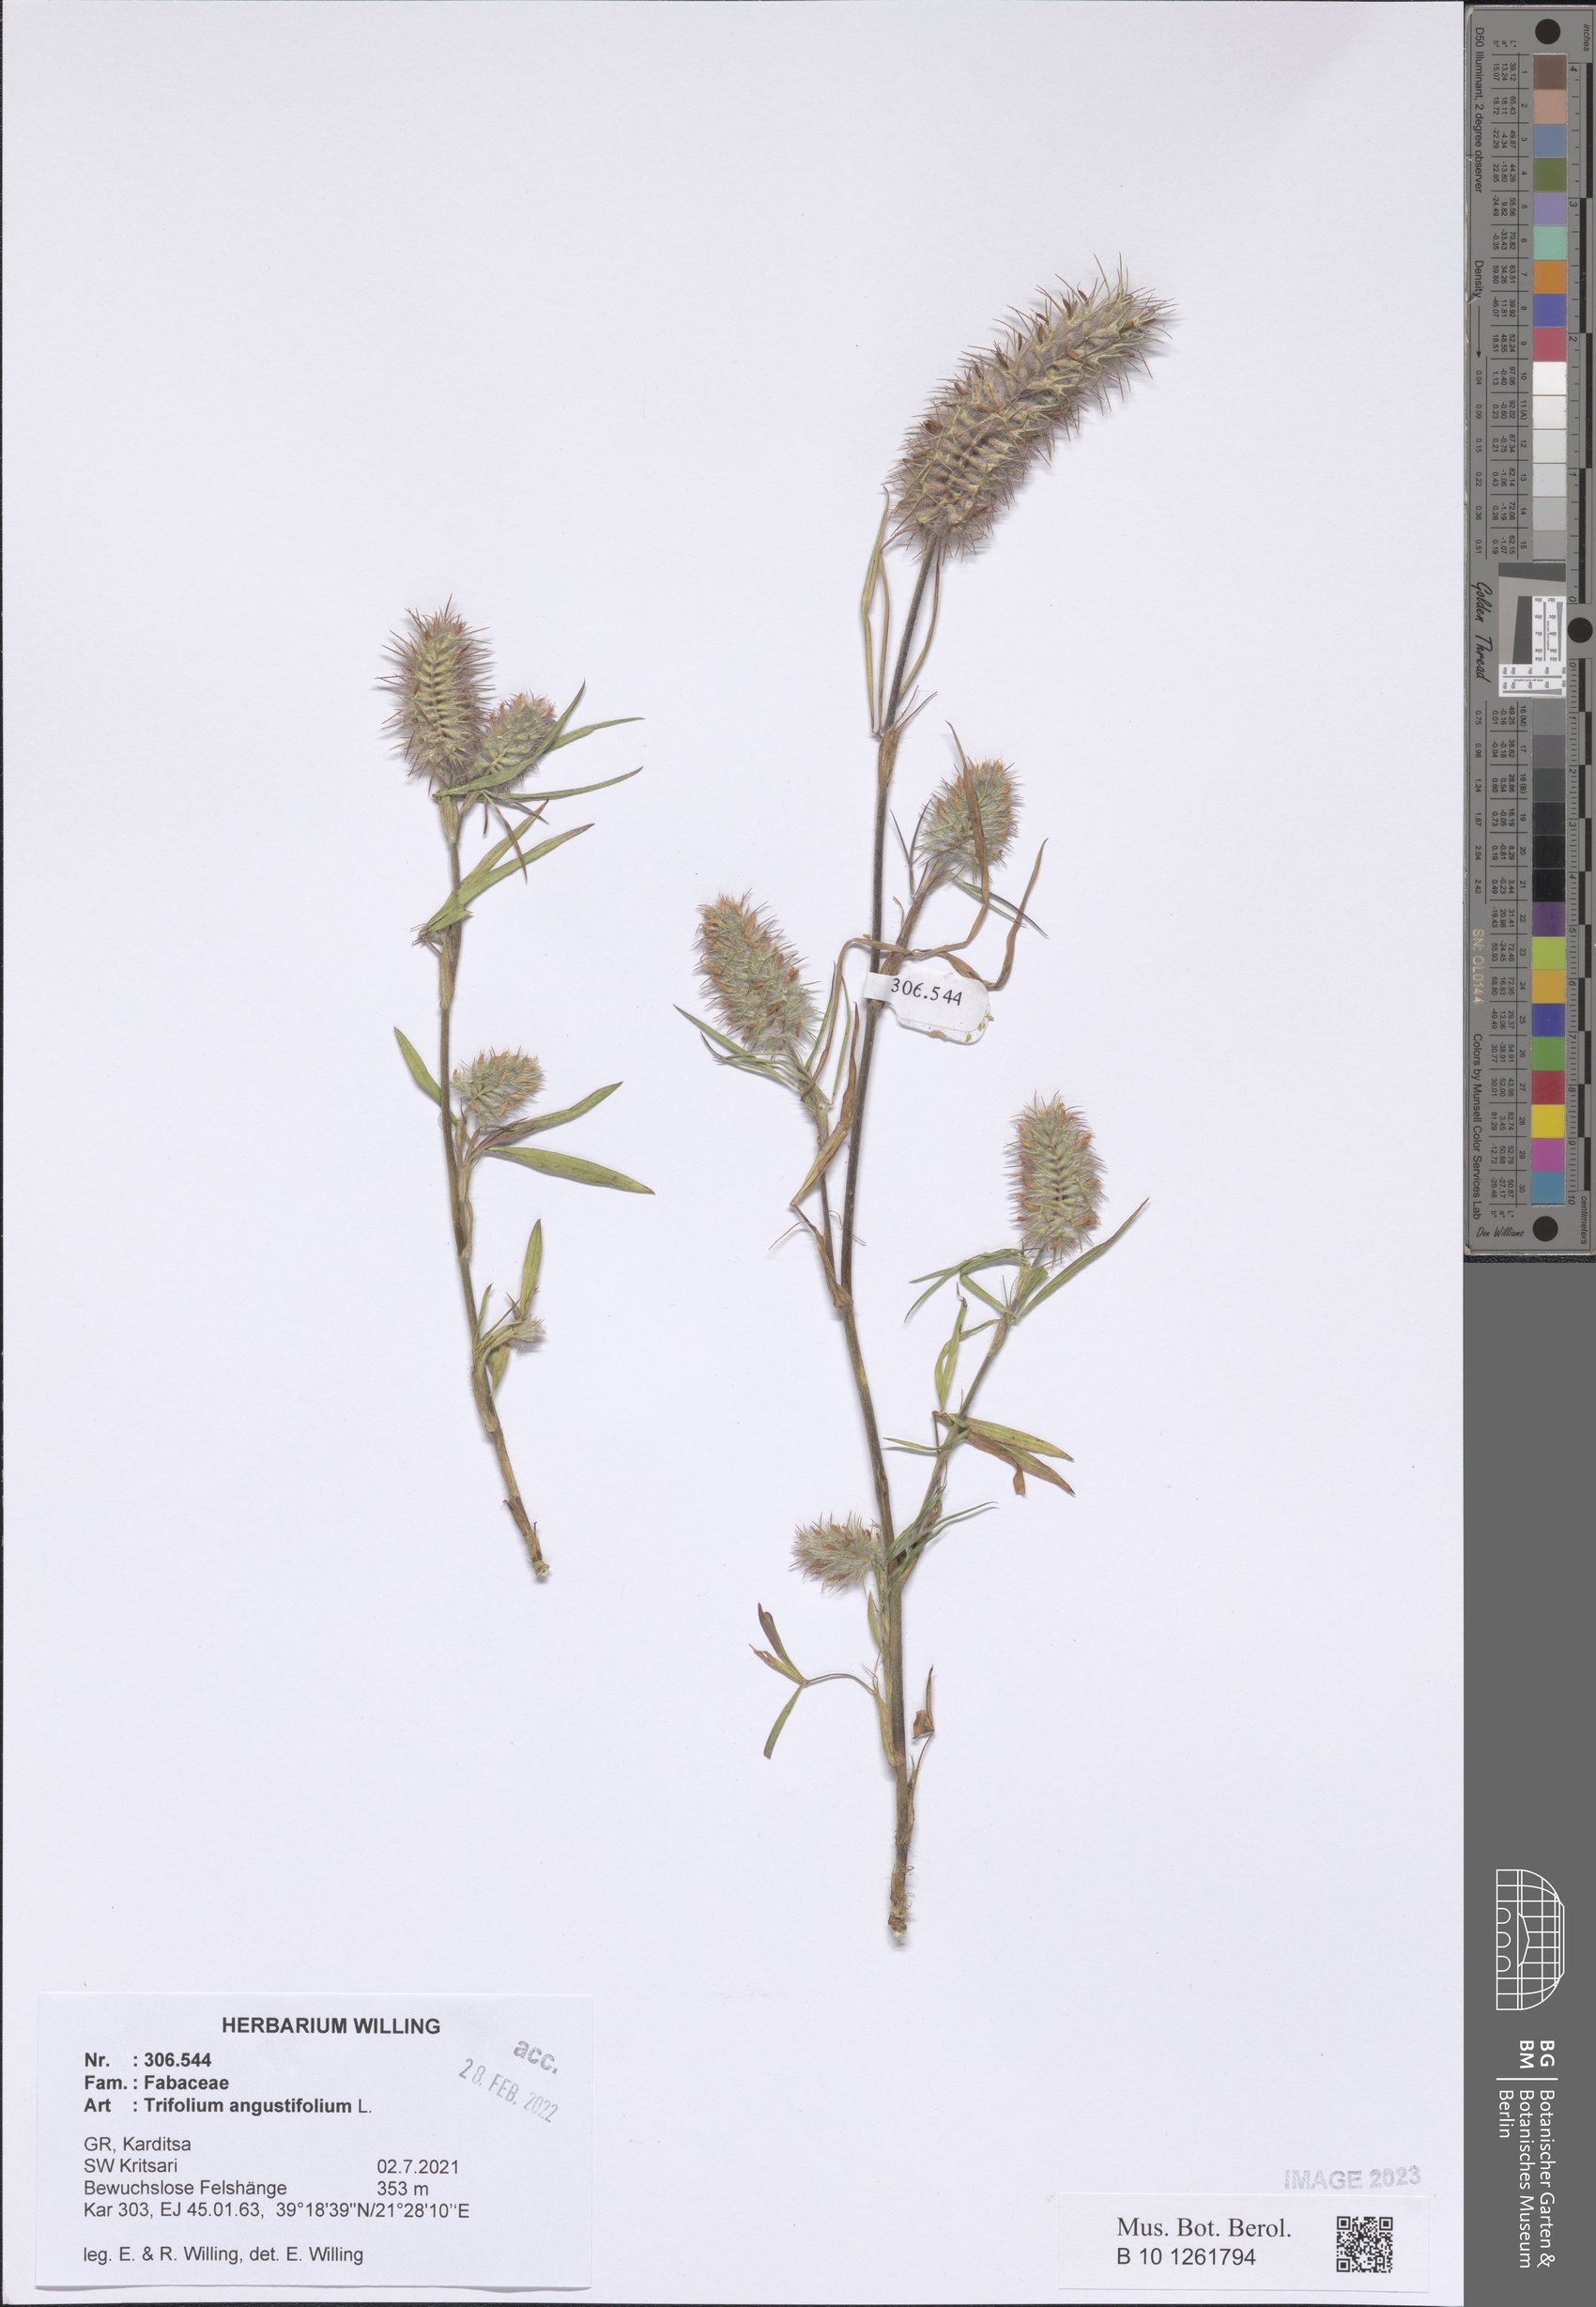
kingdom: Plantae
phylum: Tracheophyta
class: Magnoliopsida
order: Fabales
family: Fabaceae
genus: Trifolium
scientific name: Trifolium angustifolium
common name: Narrow clover
